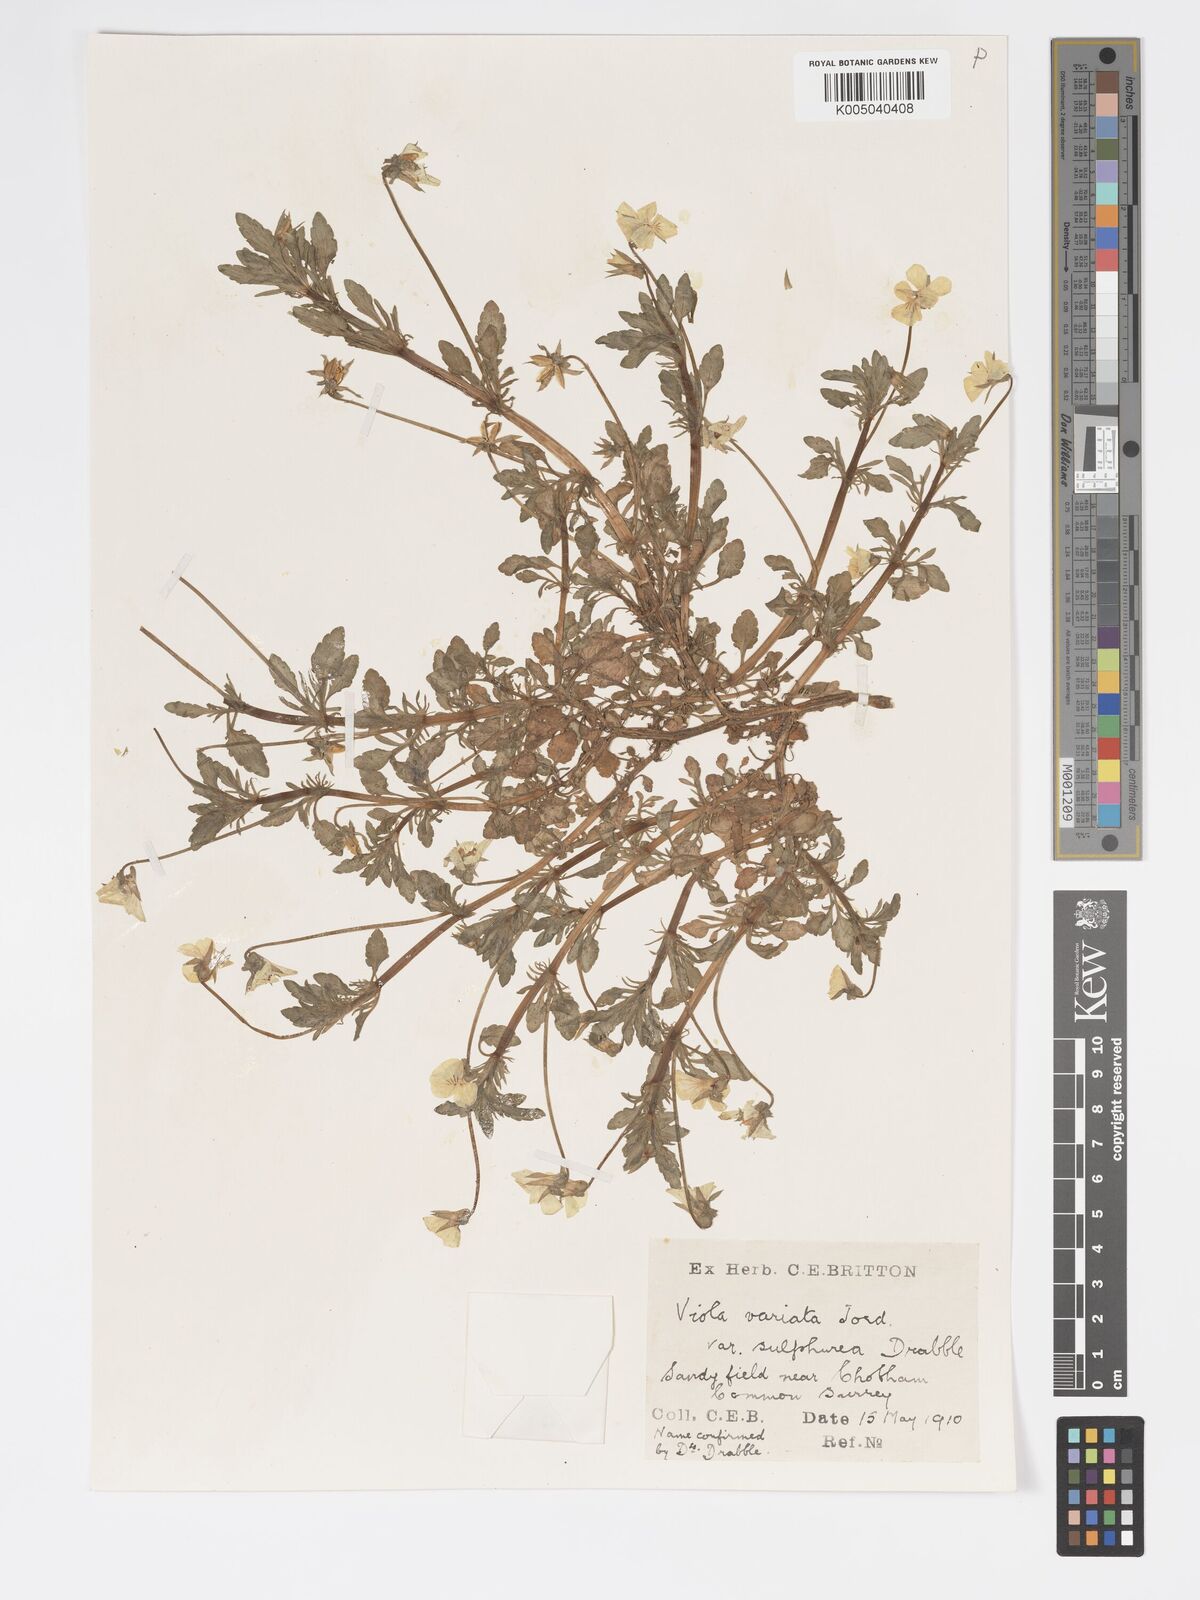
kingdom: Plantae
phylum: Tracheophyta
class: Magnoliopsida
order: Malpighiales
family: Violaceae
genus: Viola
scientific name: Viola arvensis
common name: Field pansy
